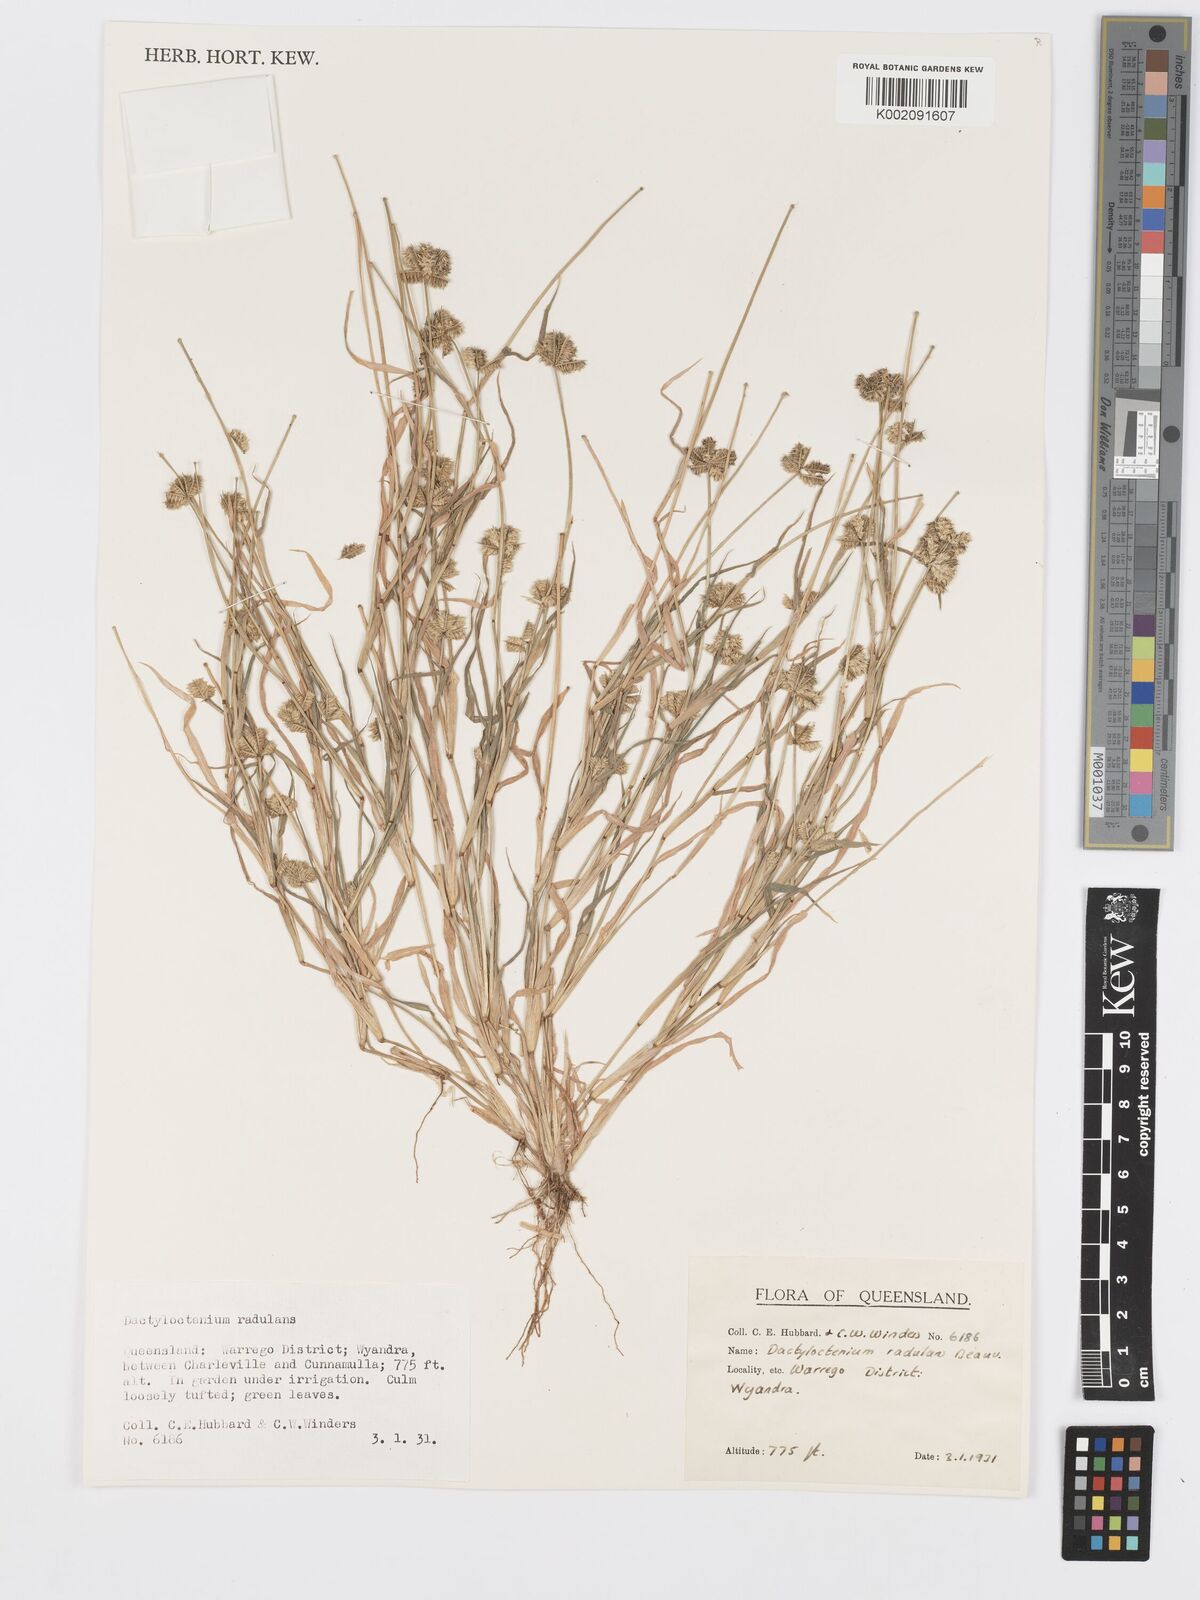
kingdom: Plantae
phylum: Tracheophyta
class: Liliopsida
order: Poales
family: Poaceae
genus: Dactyloctenium
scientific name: Dactyloctenium radulans
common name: Button-grass
